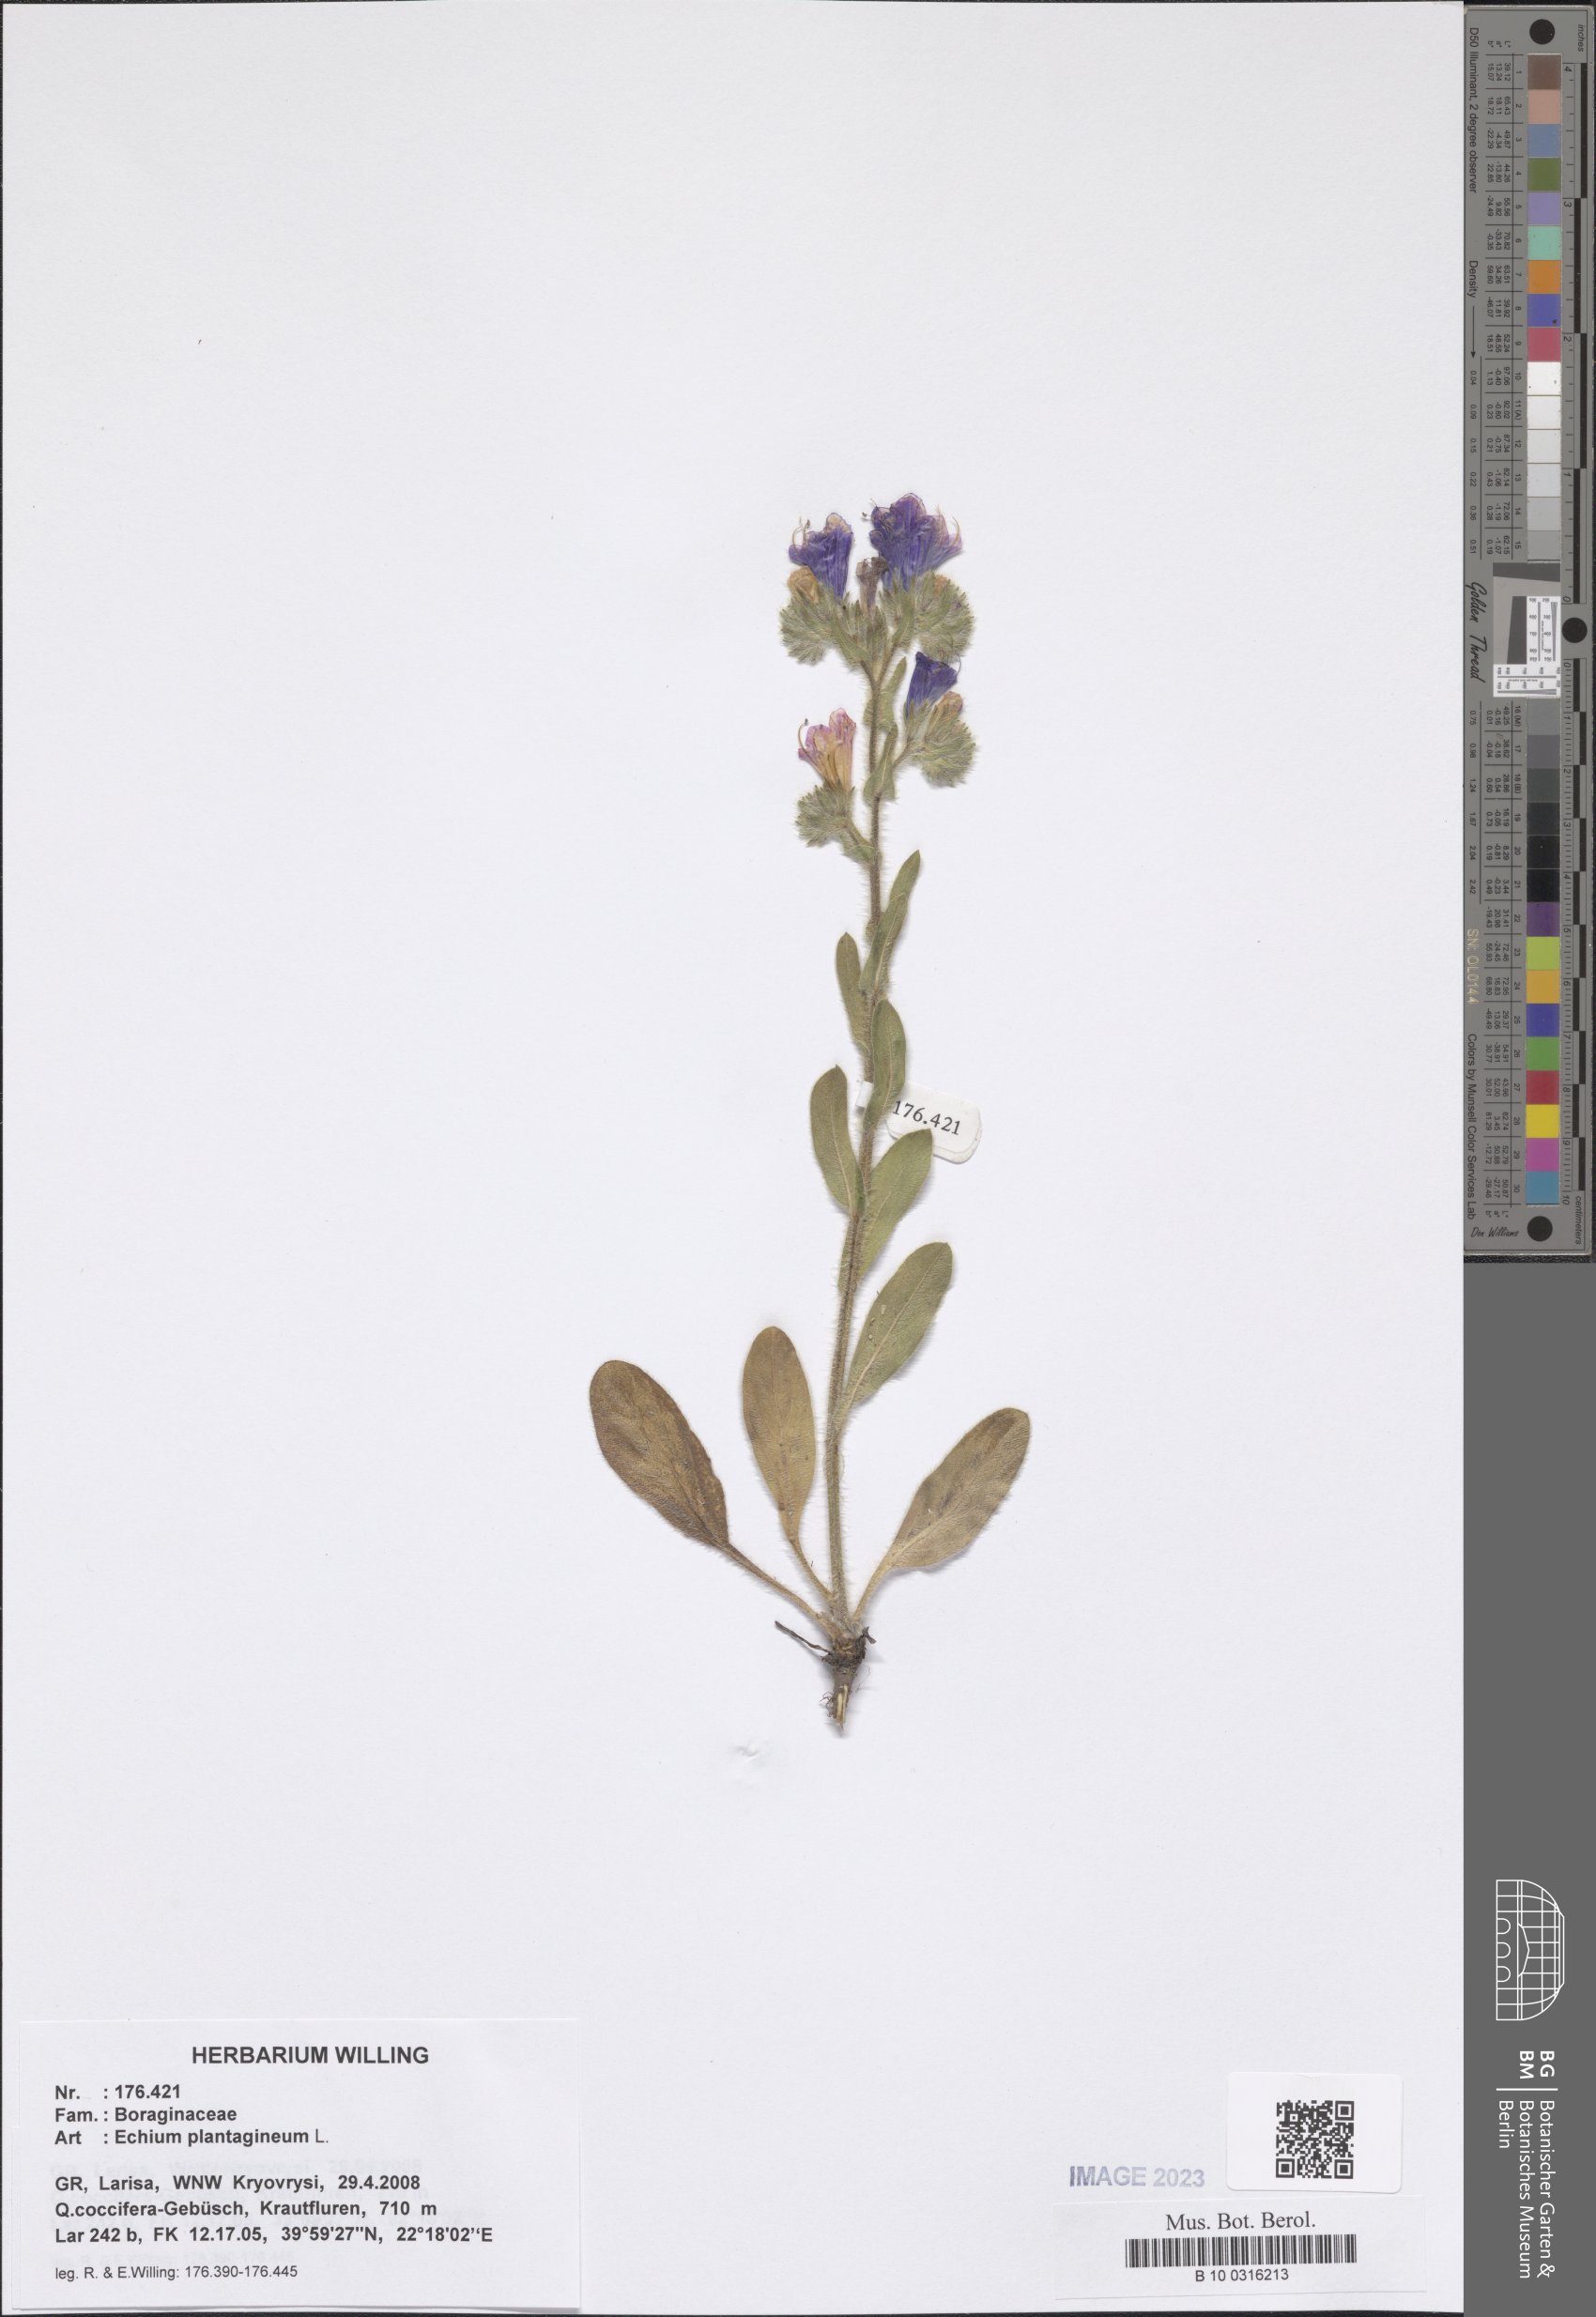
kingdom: Plantae
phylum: Tracheophyta
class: Magnoliopsida
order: Boraginales
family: Boraginaceae
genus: Echium
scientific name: Echium plantagineum
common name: Purple viper's-bugloss
